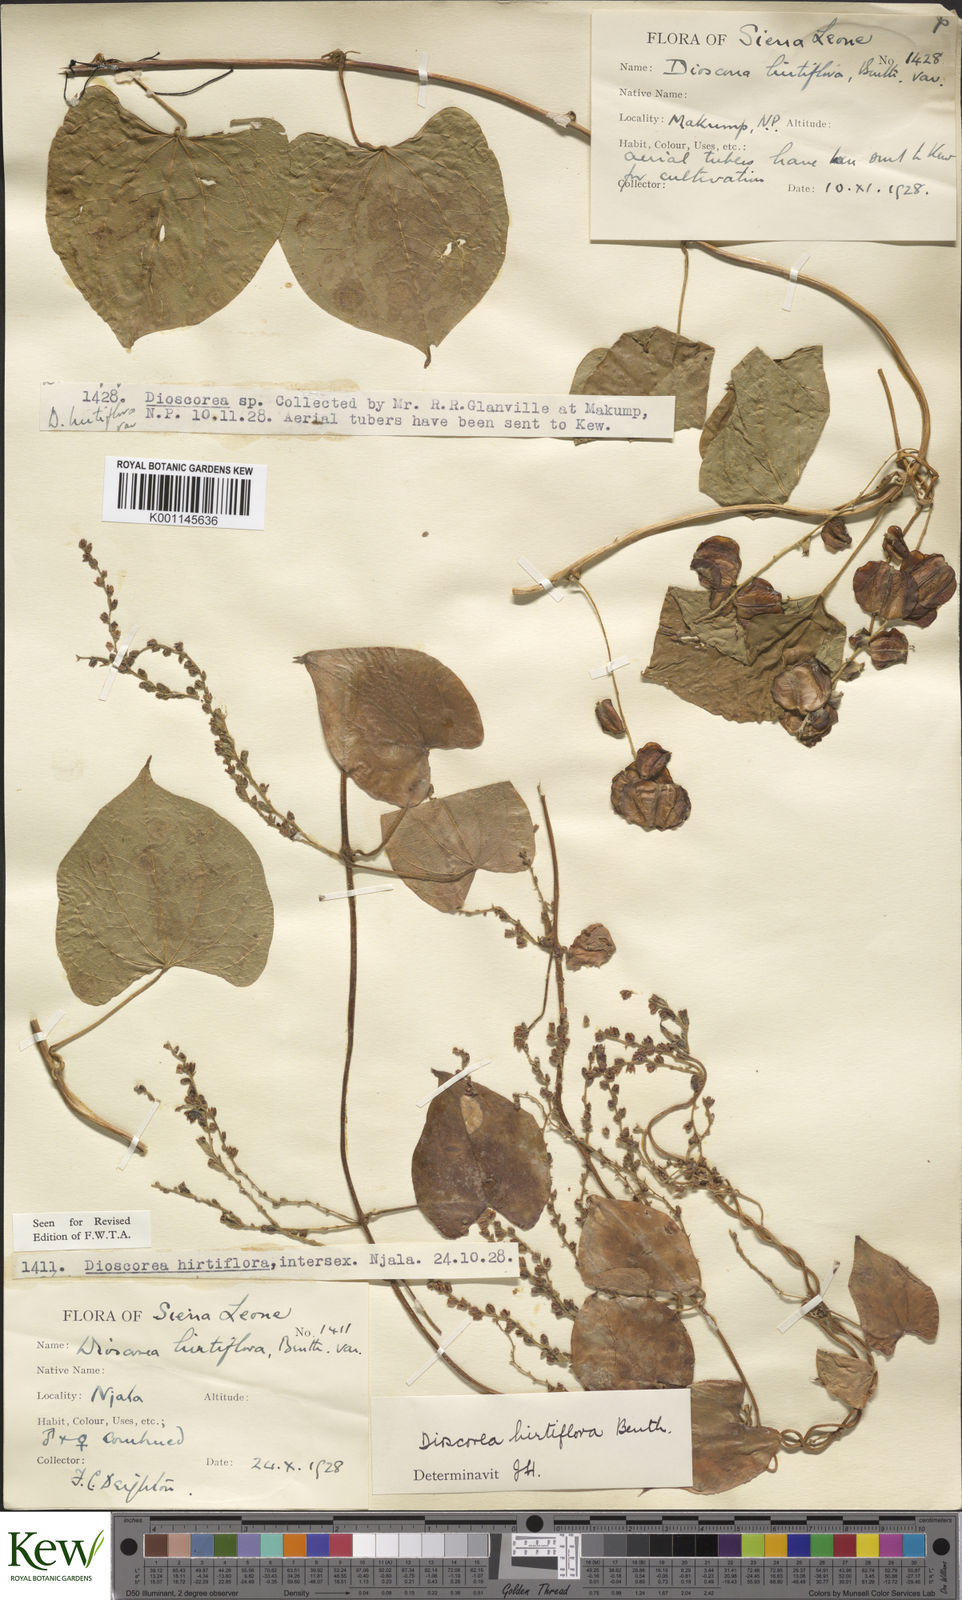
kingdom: Plantae
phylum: Tracheophyta
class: Liliopsida
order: Dioscoreales
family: Dioscoreaceae
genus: Dioscorea
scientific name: Dioscorea hirtiflora
